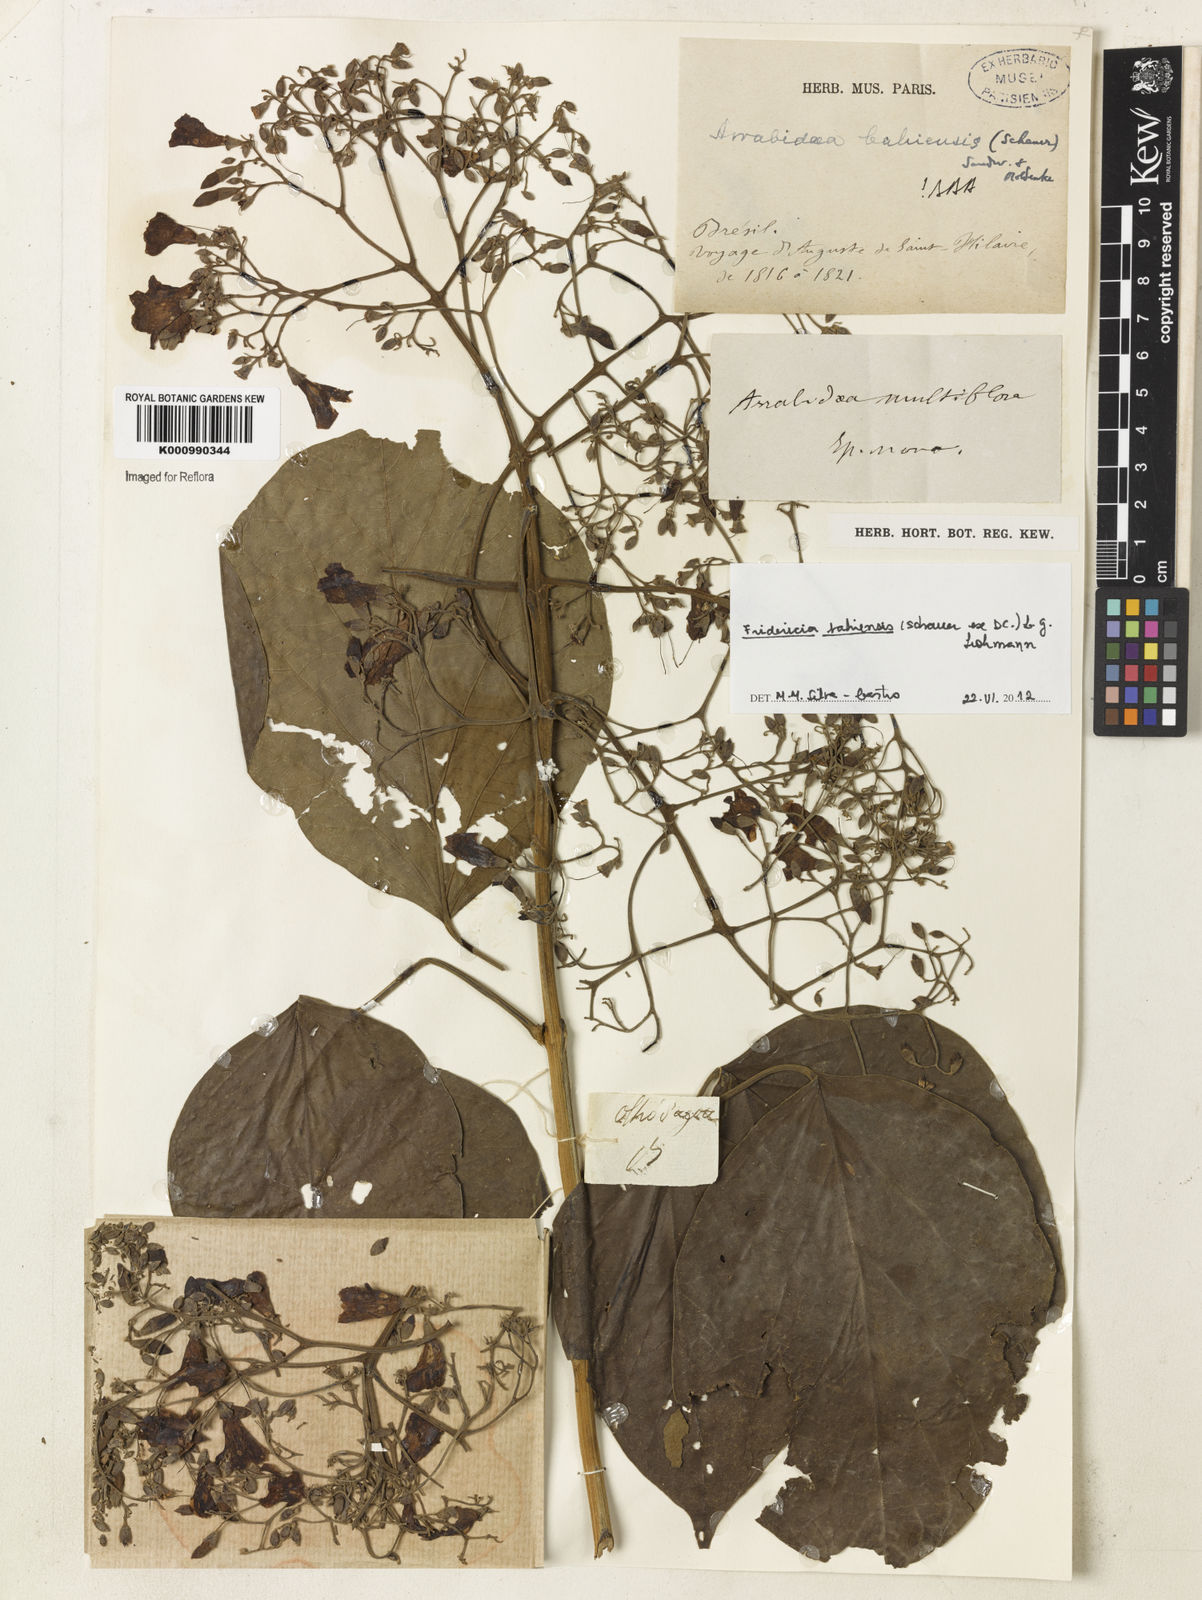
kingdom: Plantae
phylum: Tracheophyta
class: Magnoliopsida
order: Lamiales
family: Bignoniaceae
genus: Fridericia
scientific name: Fridericia bahiensis
